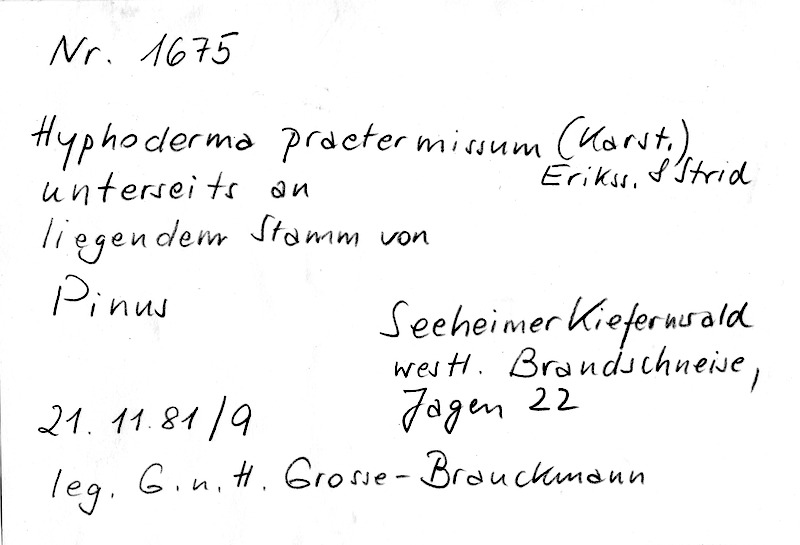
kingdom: Fungi
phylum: Basidiomycota
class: Agaricomycetes
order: Hymenochaetales
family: Rickenellaceae
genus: Peniophorella
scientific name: Peniophorella praetermissa
